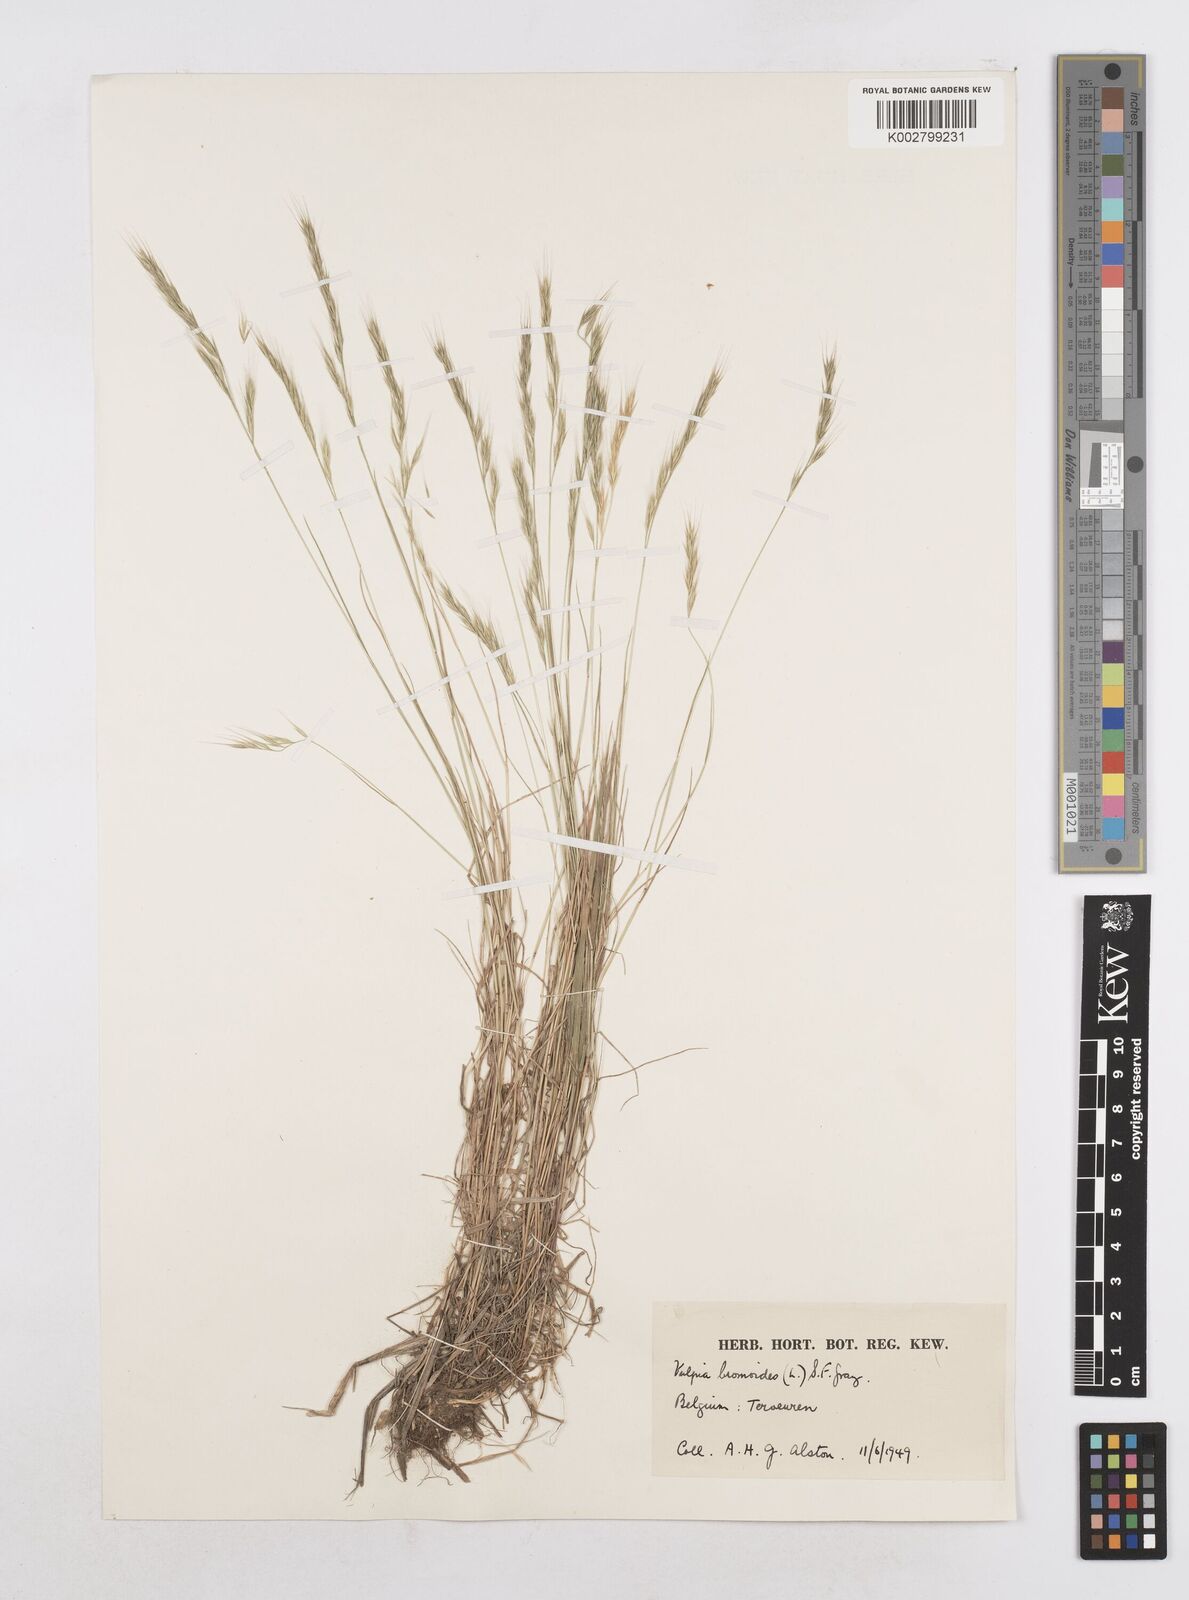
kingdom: Plantae
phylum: Tracheophyta
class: Liliopsida
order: Poales
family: Poaceae
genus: Festuca
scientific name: Festuca bromoides
